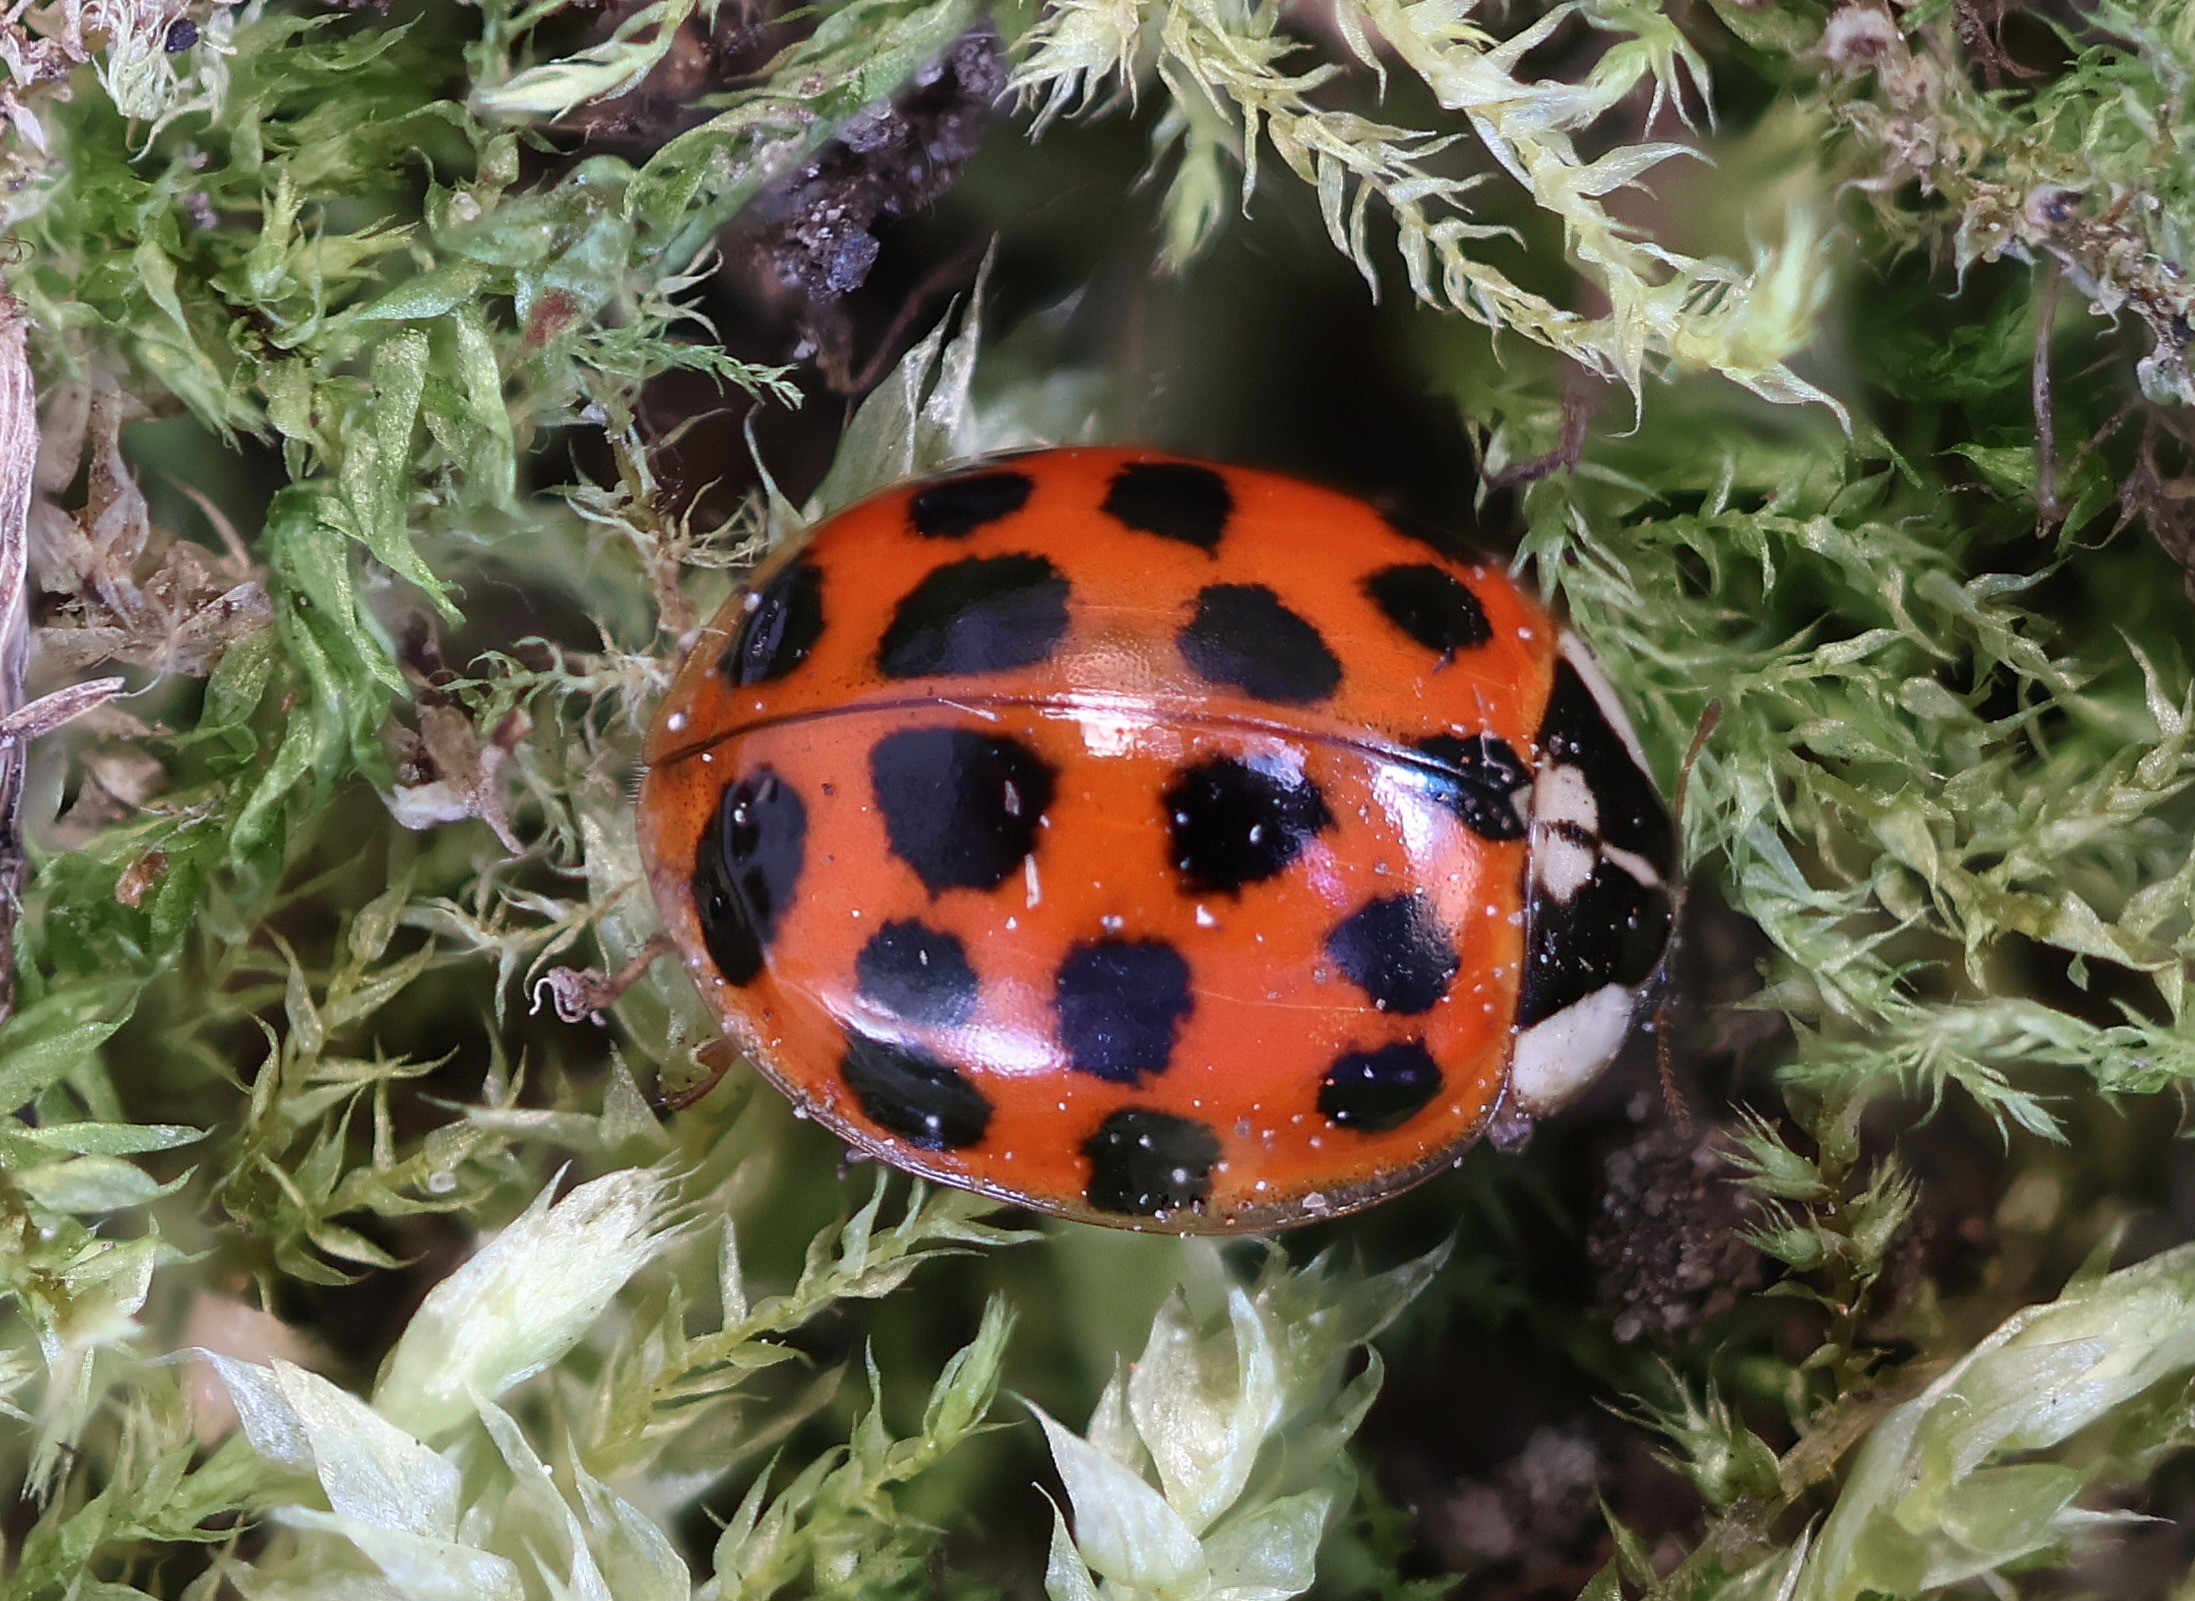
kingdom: Animalia
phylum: Arthropoda
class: Insecta
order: Coleoptera
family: Coccinellidae
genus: Harmonia
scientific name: Harmonia axyridis
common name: Harlekinmariehøne
